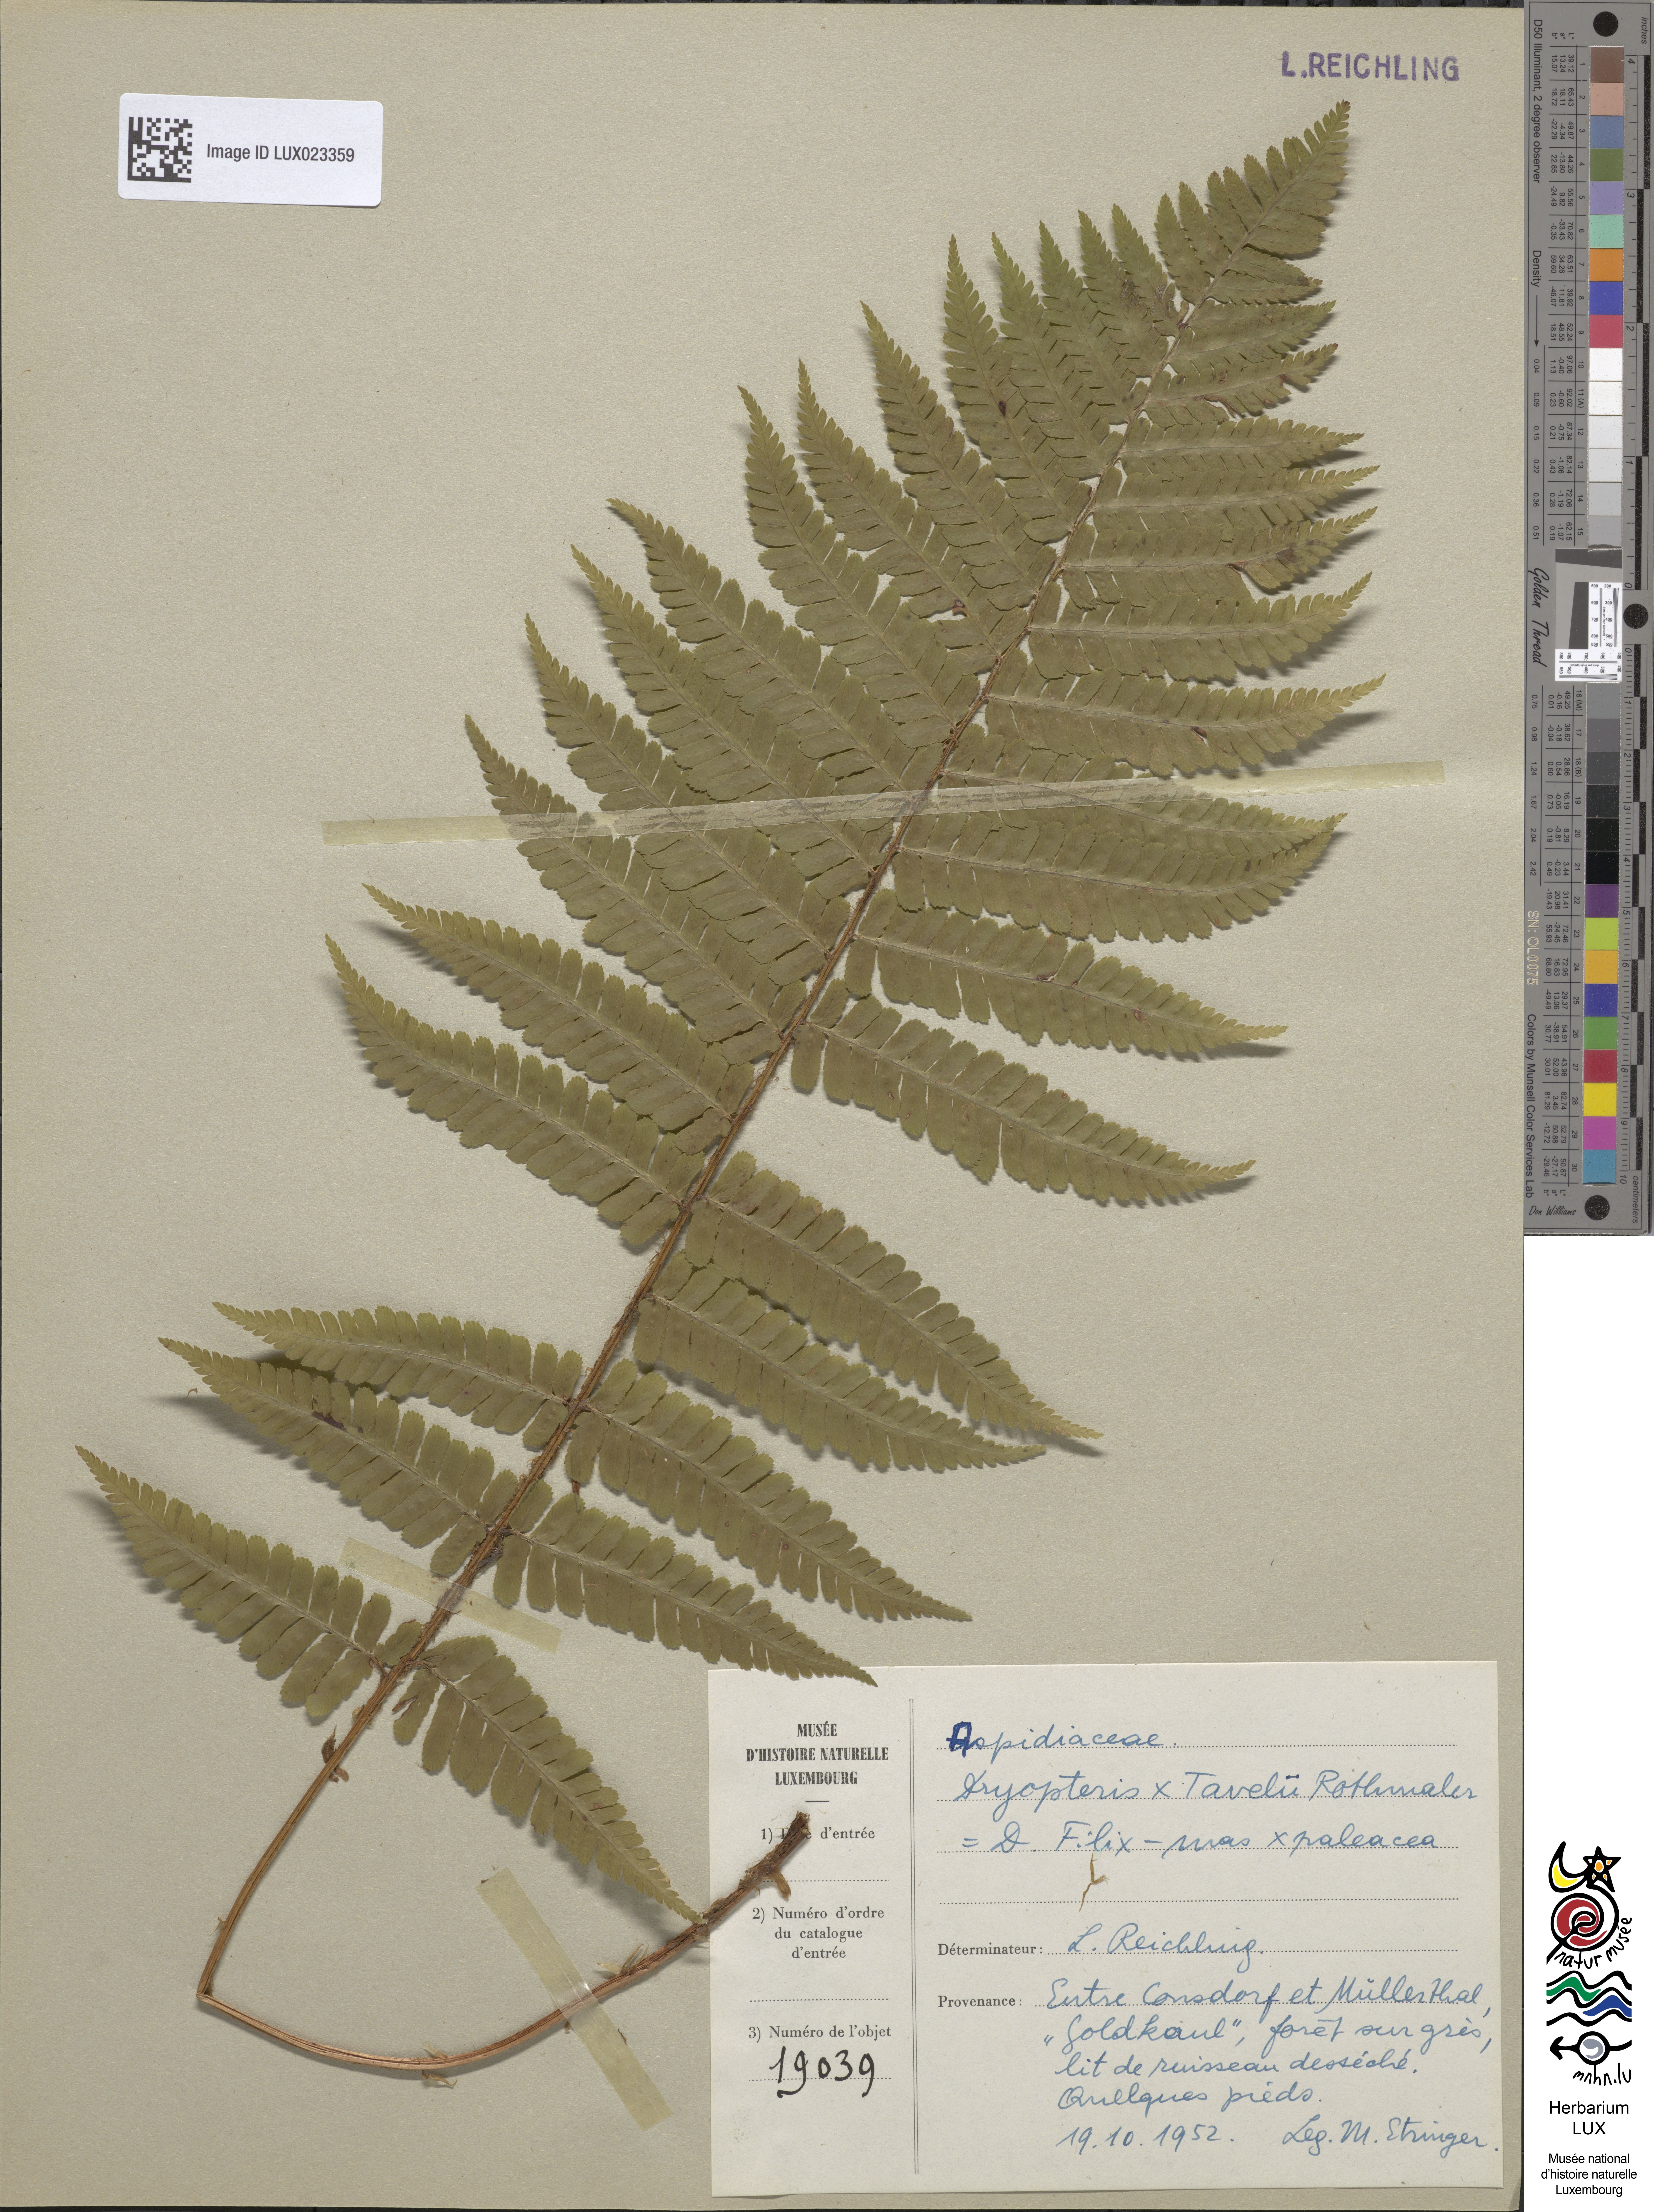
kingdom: Plantae
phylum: Tracheophyta
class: Polypodiopsida
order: Polypodiales
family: Dryopteridaceae
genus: Dryopteris
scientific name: Dryopteris borreri
